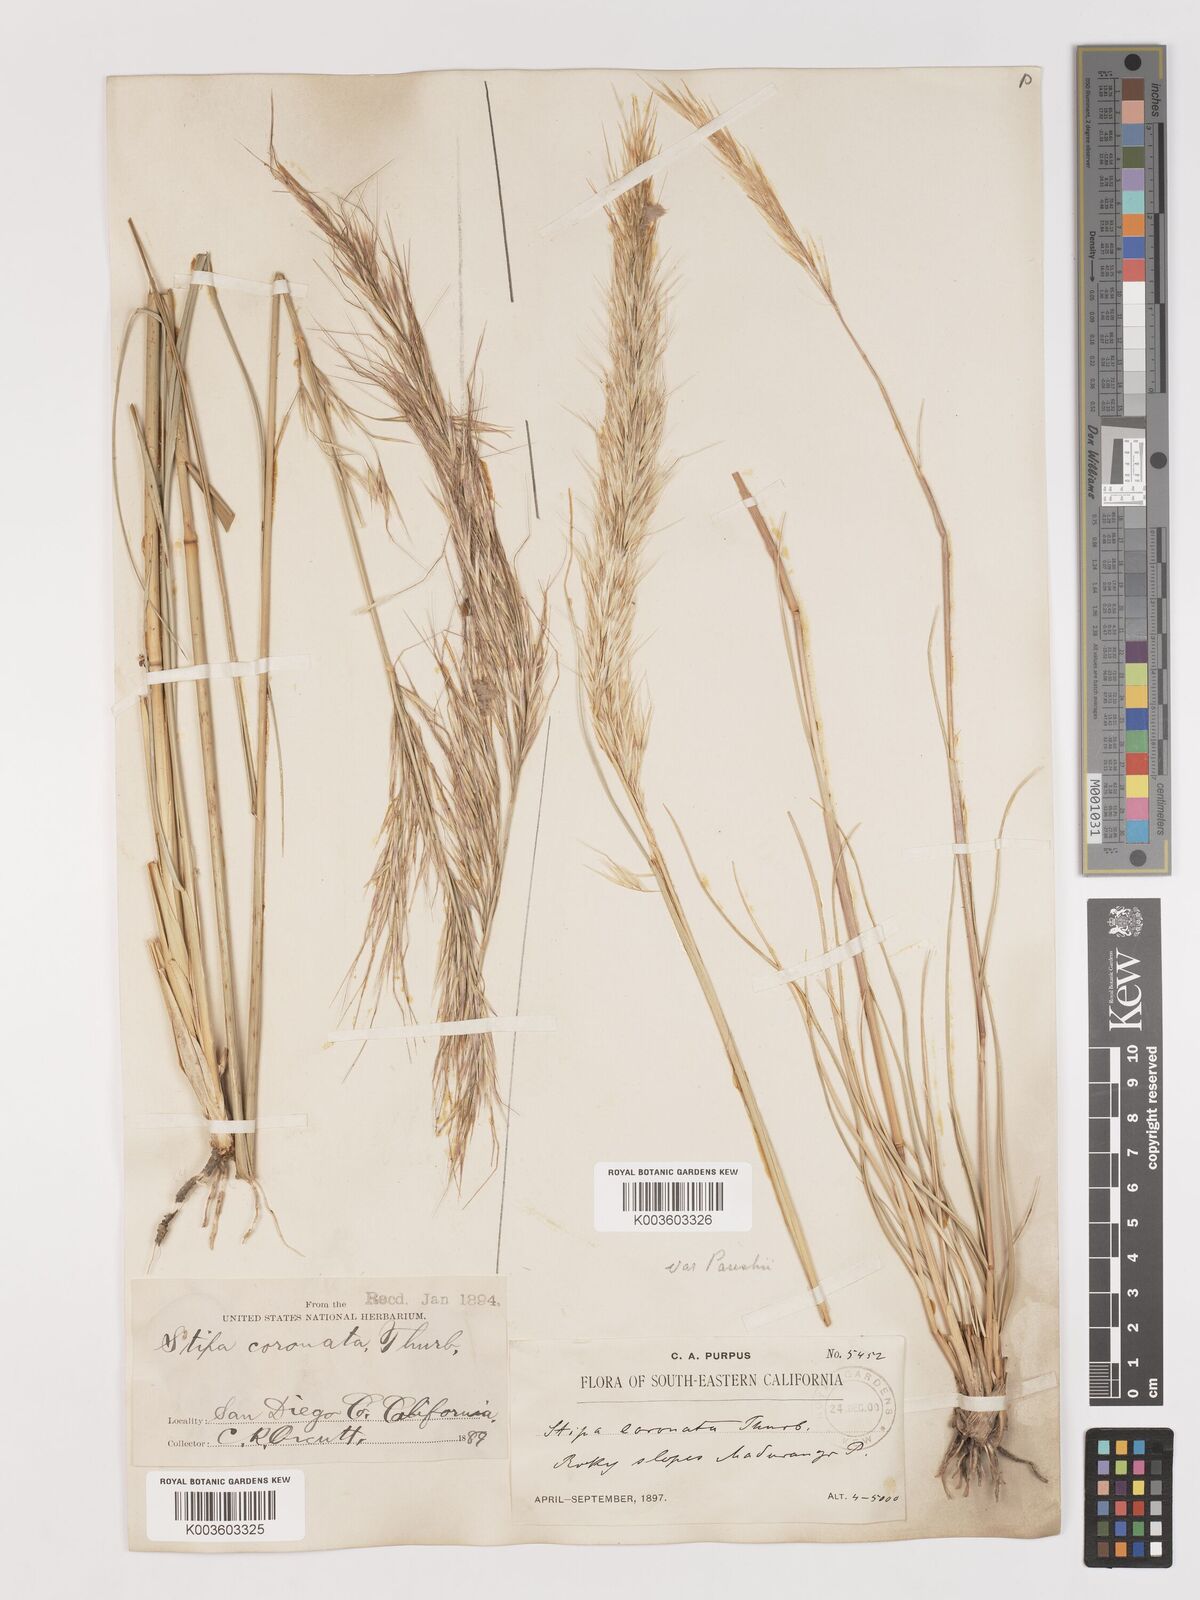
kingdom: Plantae
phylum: Tracheophyta
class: Liliopsida
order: Poales
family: Poaceae
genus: Hesperostipa
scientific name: Hesperostipa comata
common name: Needle-and-thread grass
